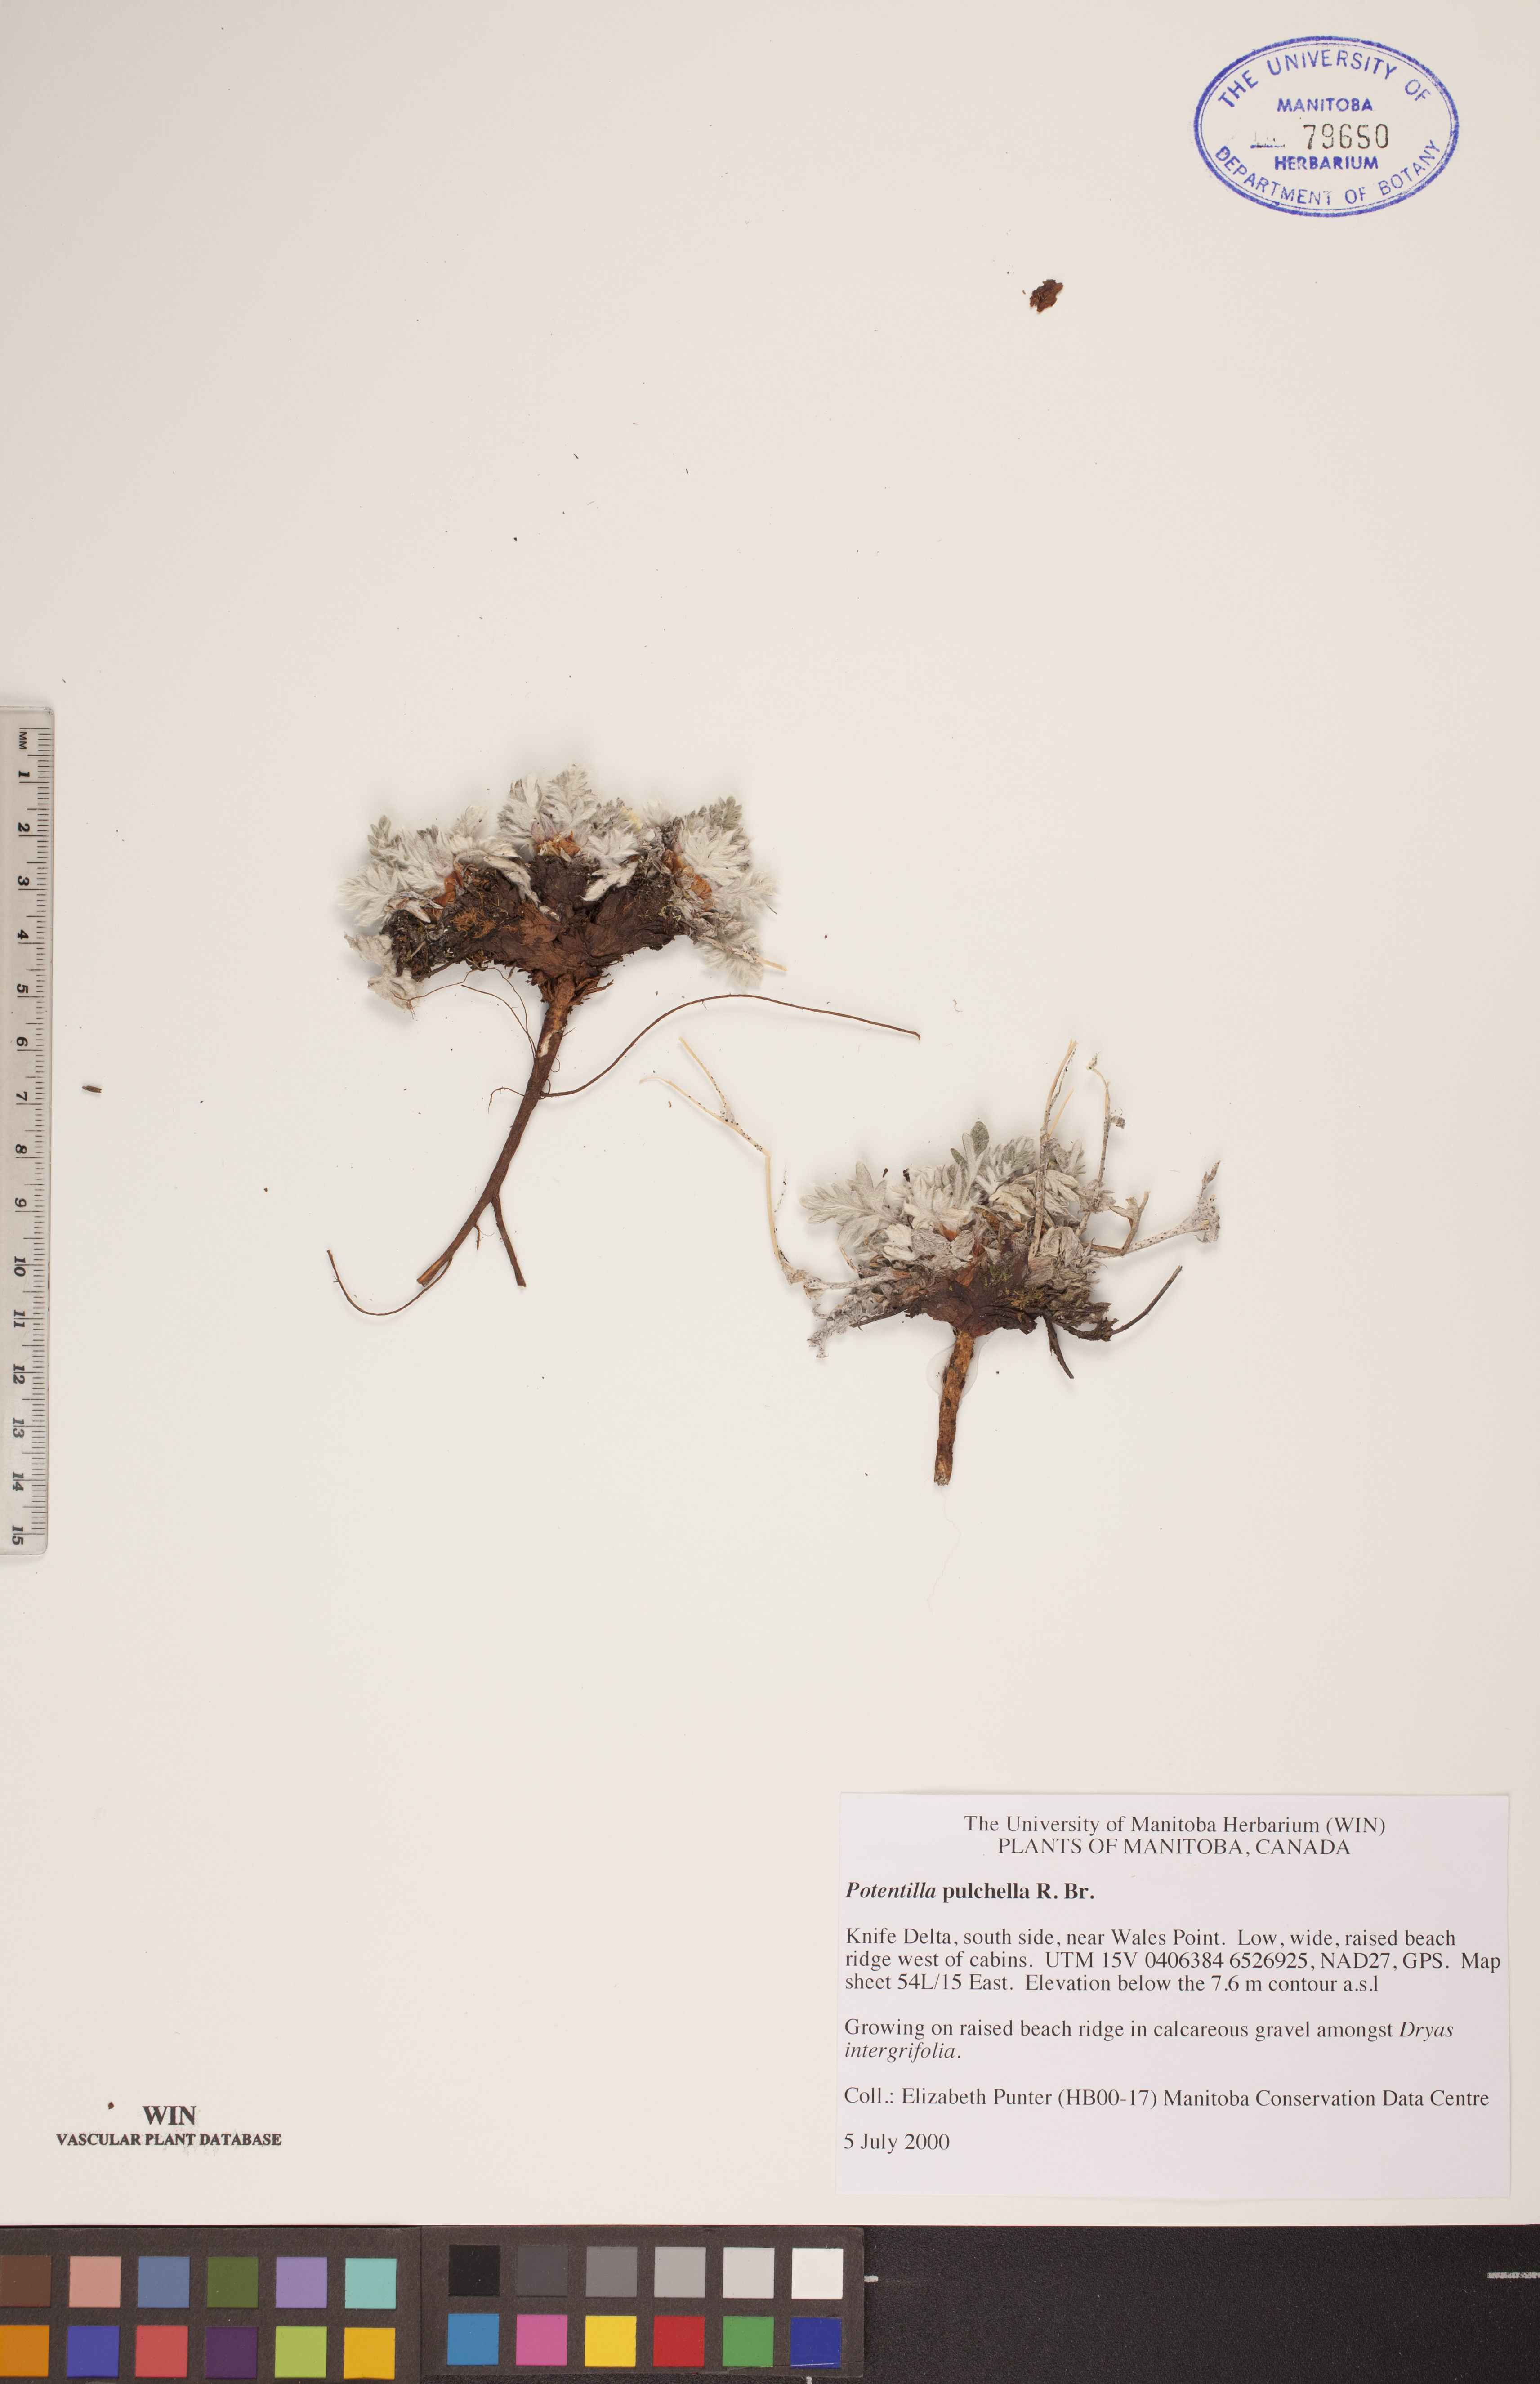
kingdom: Plantae
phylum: Tracheophyta
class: Magnoliopsida
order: Rosales
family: Rosaceae
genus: Potentilla
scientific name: Potentilla pulchella
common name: Pretty cinquefoil
